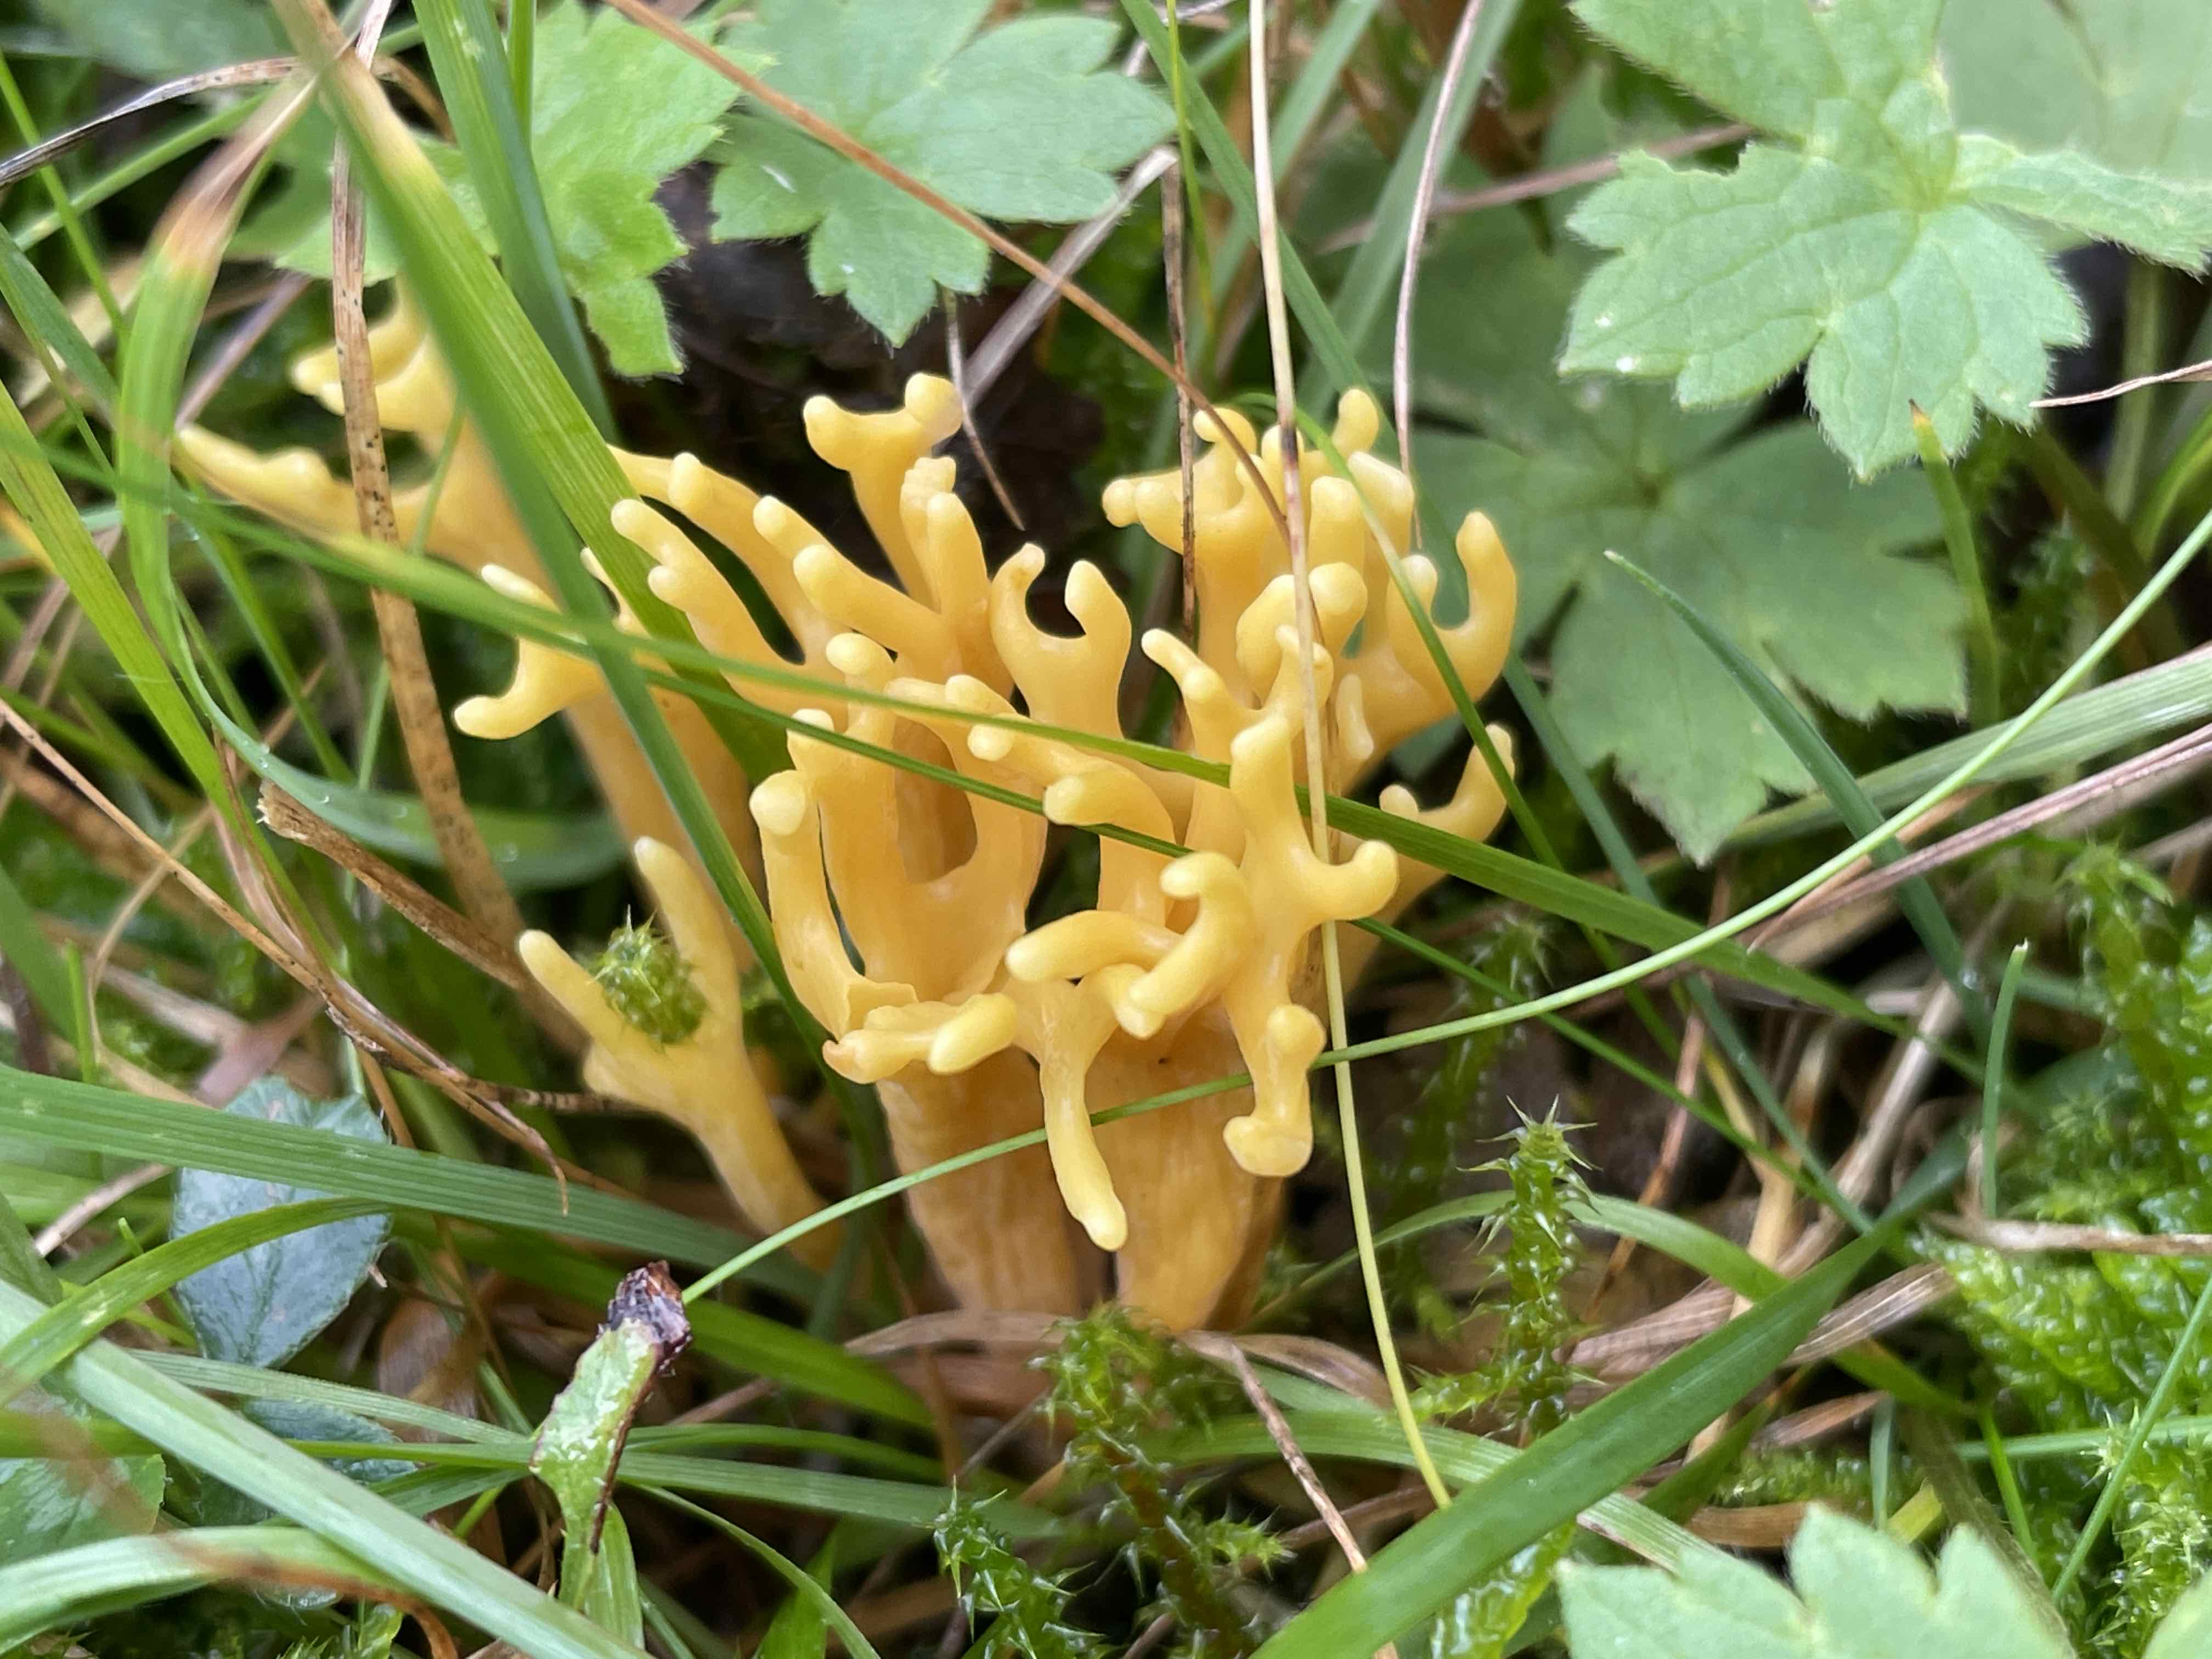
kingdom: Fungi
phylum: Basidiomycota
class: Agaricomycetes
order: Agaricales
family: Clavariaceae
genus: Clavulinopsis
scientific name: Clavulinopsis corniculata
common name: eng-køllesvamp
